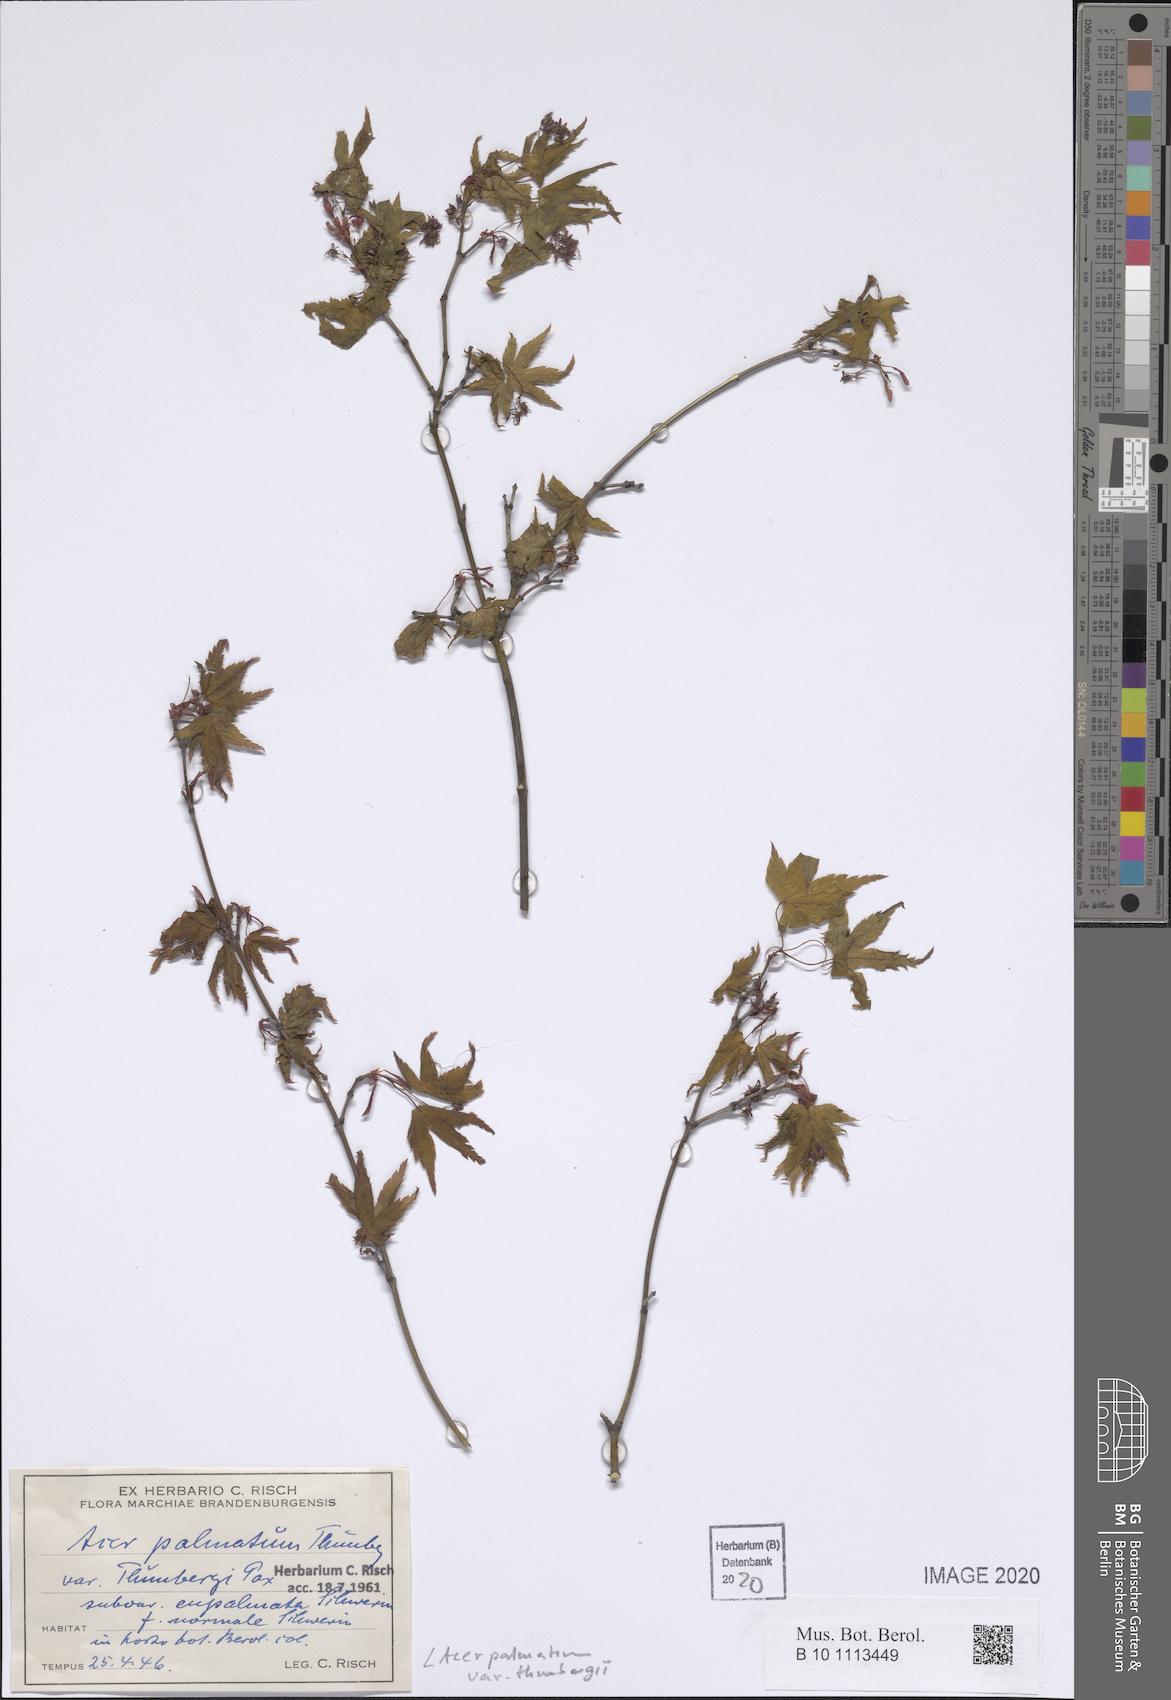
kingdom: Plantae
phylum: Tracheophyta
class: Magnoliopsida
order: Sapindales
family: Sapindaceae
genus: Acer
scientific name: Acer palmatum
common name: Japanese maple
